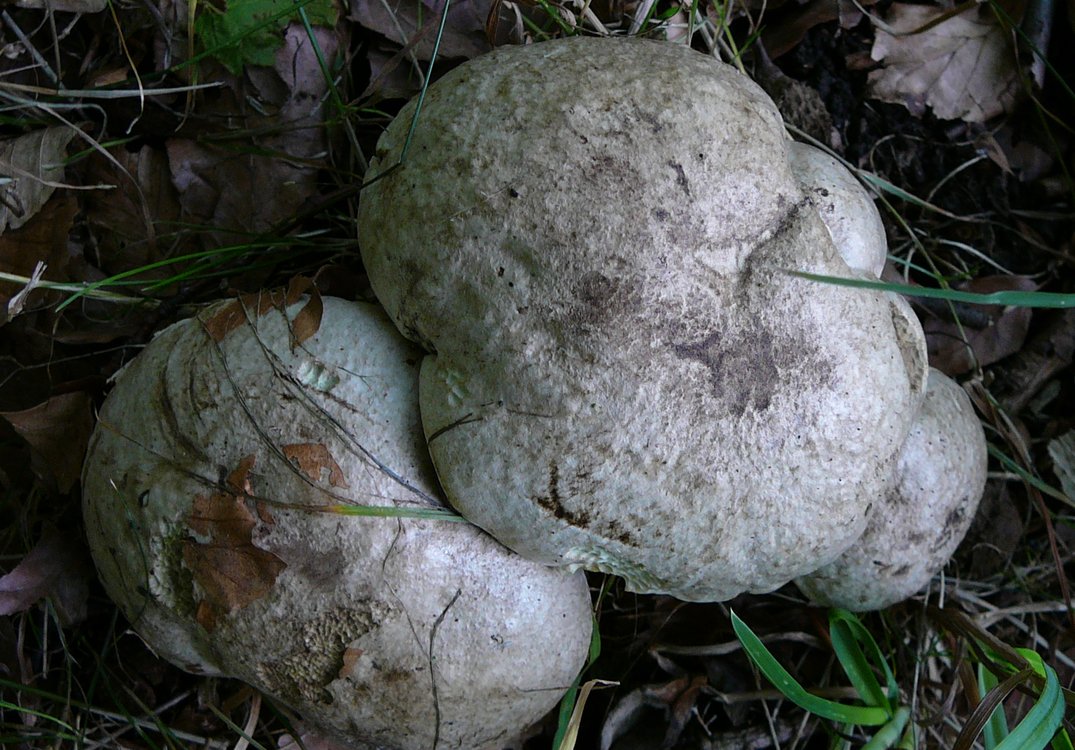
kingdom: Fungi
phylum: Basidiomycota
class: Agaricomycetes
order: Boletales
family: Boletaceae
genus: Caloboletus
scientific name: Caloboletus radicans
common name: rod-rørhat
